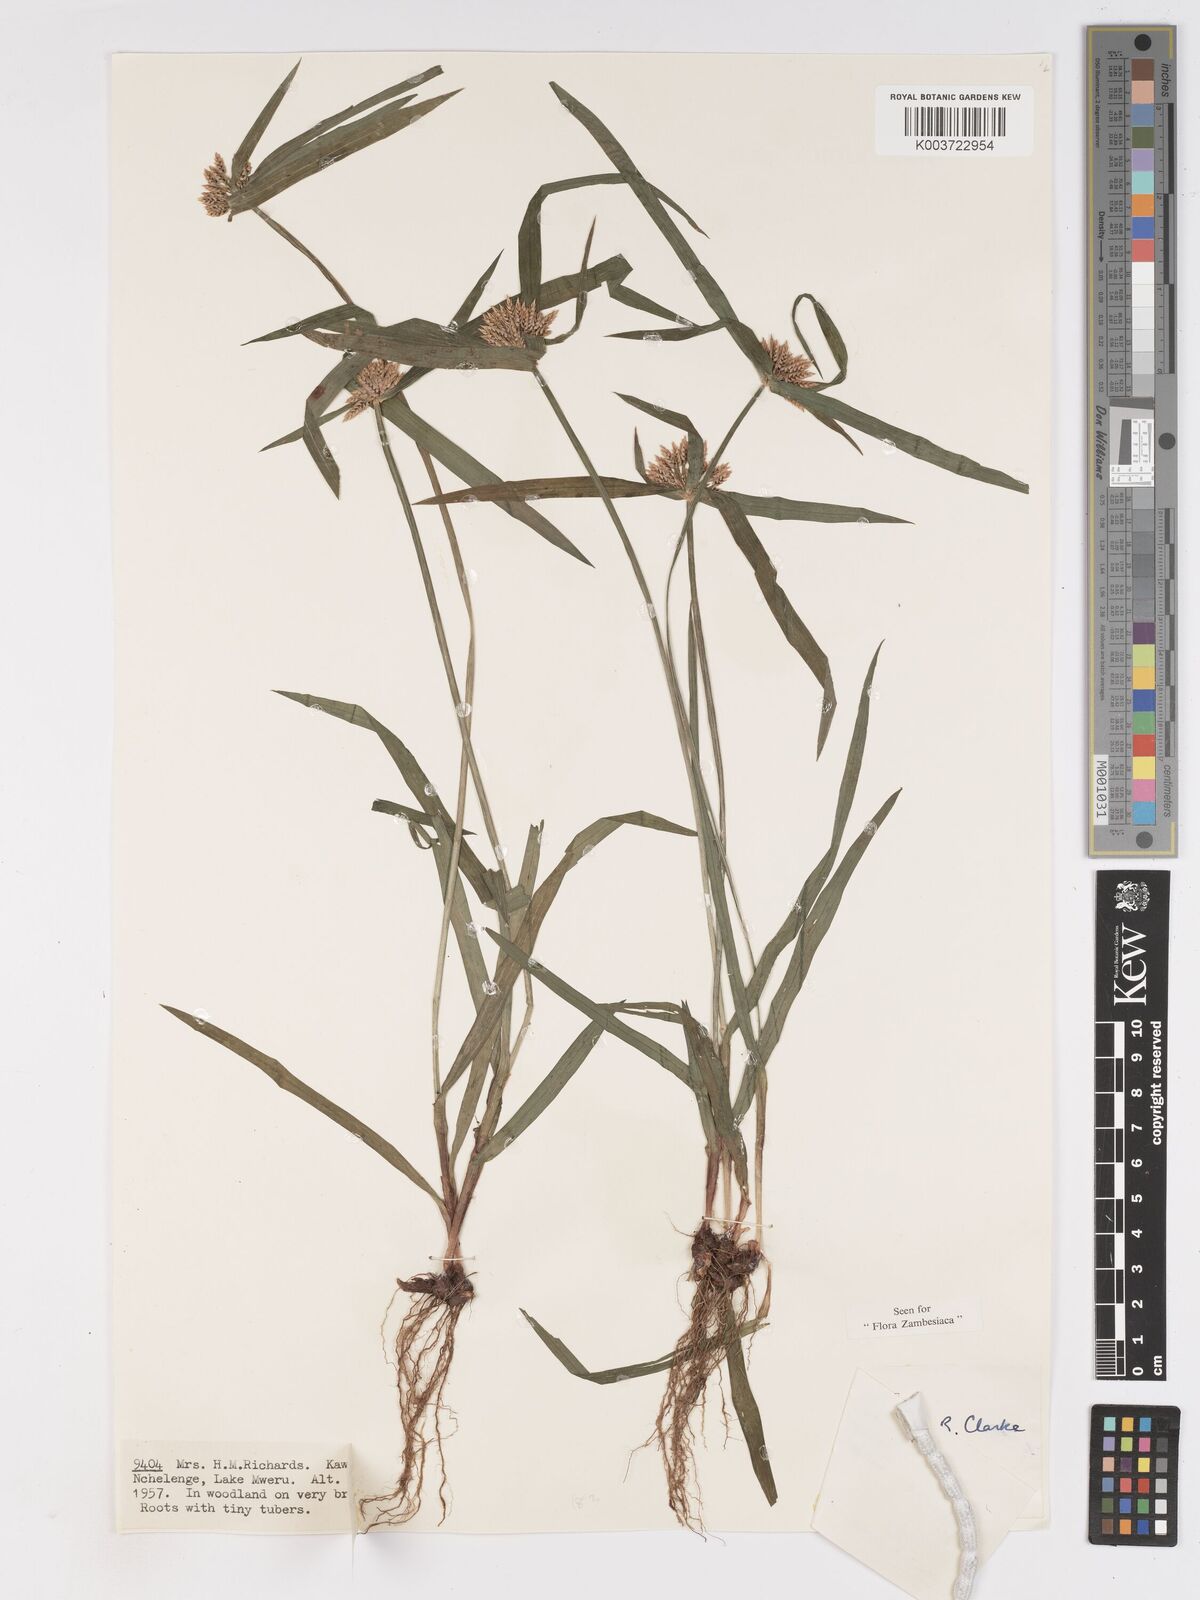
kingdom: Plantae
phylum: Tracheophyta
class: Liliopsida
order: Poales
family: Cyperaceae
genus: Cyperus
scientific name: Cyperus mapanioides
